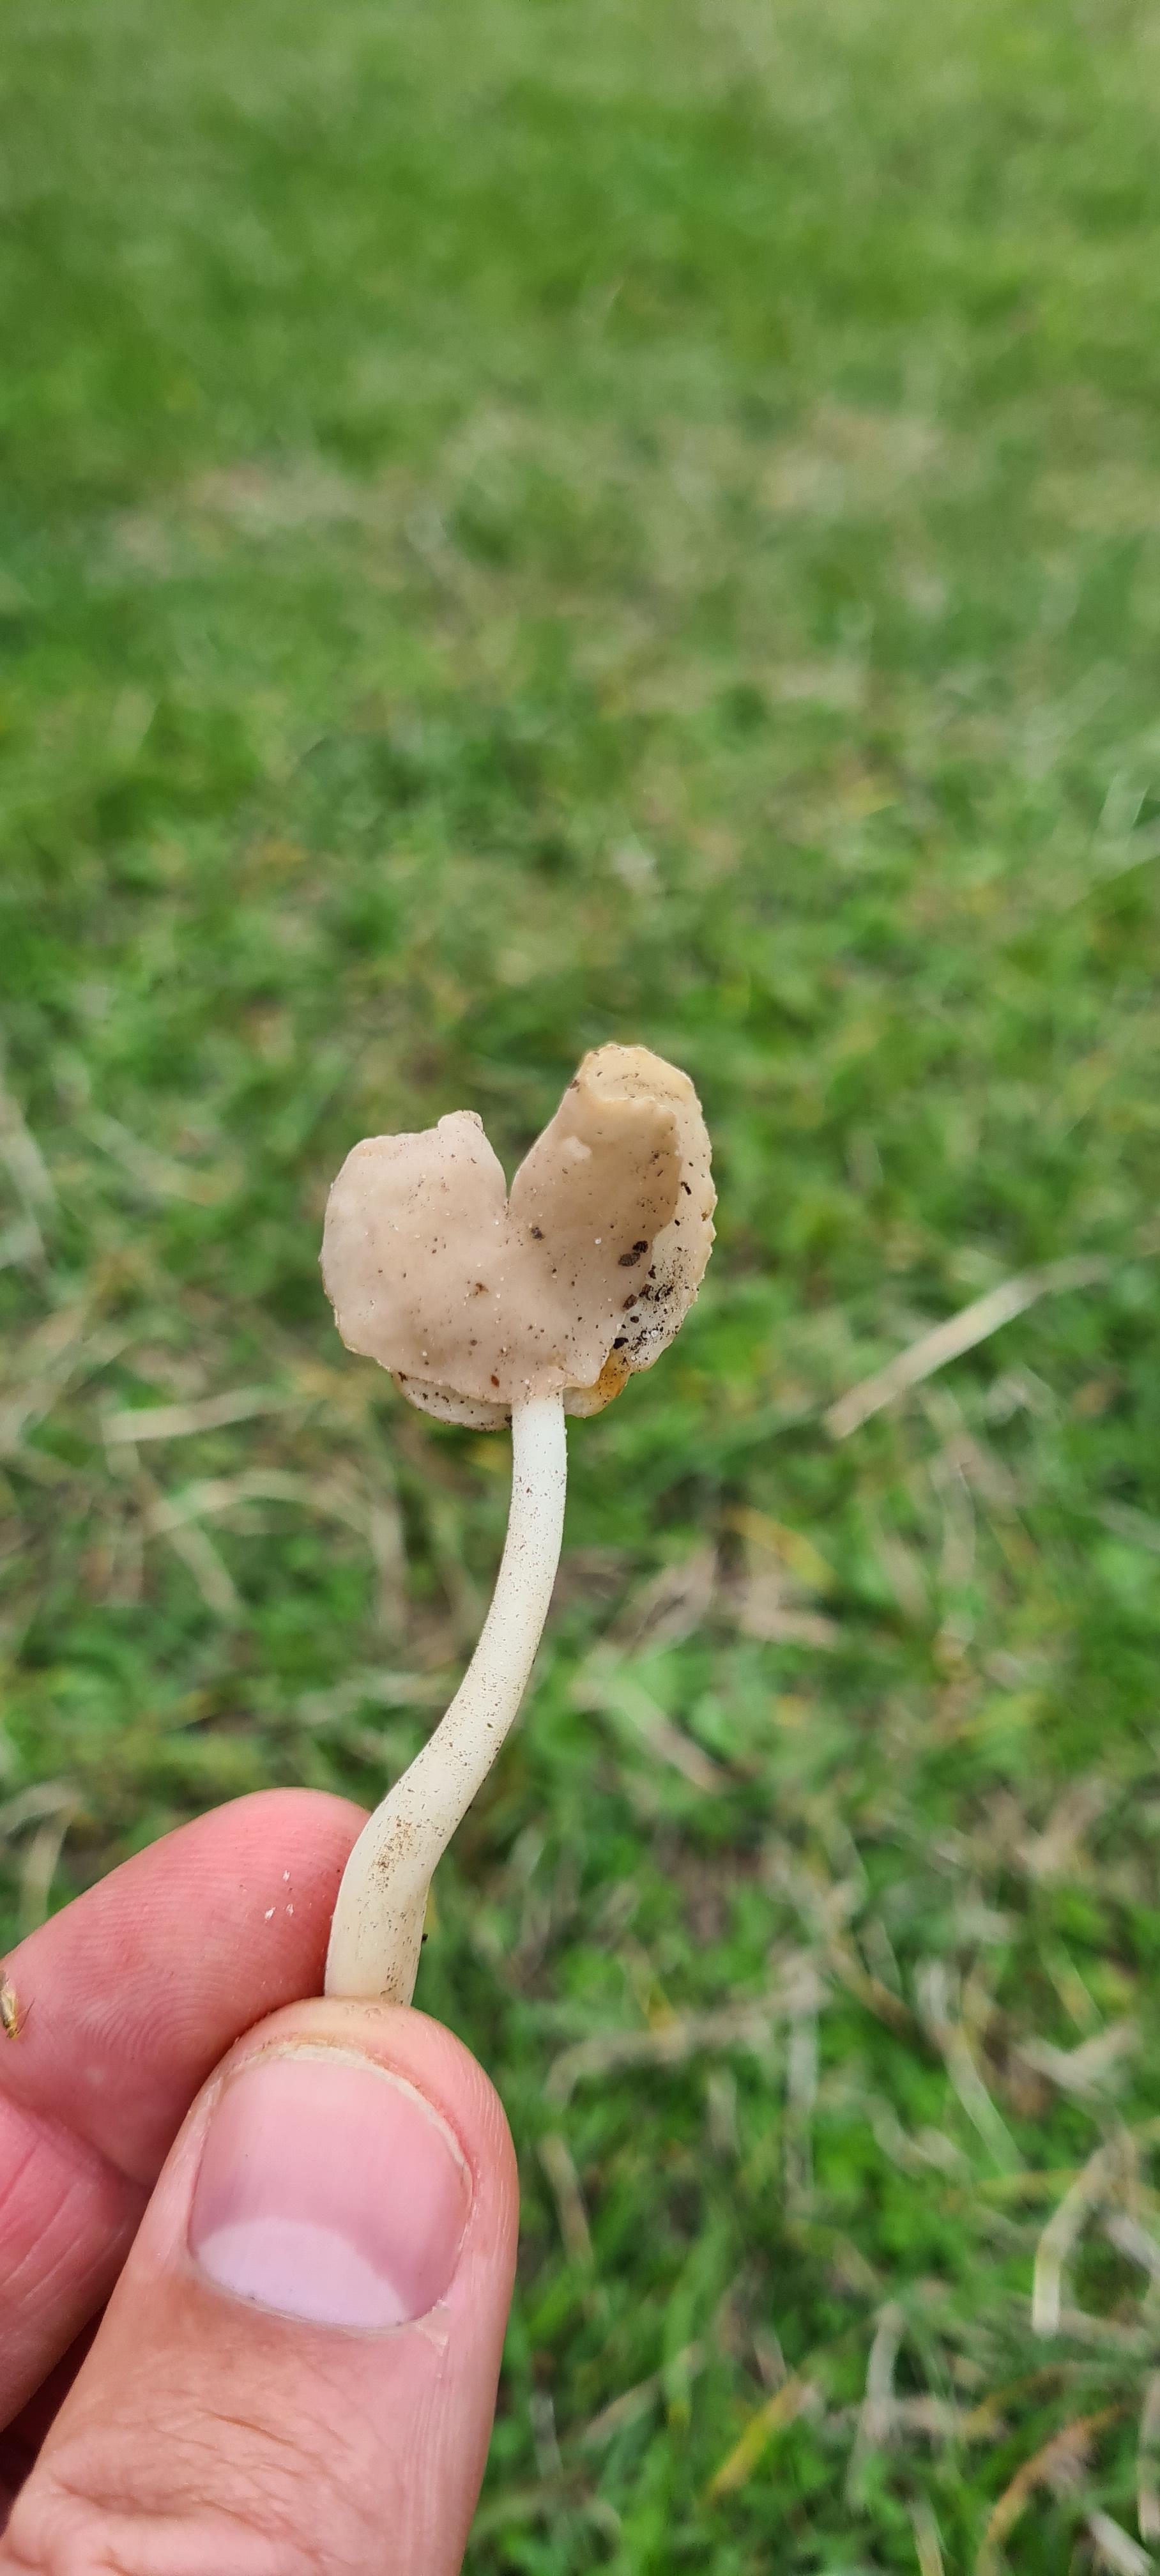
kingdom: Fungi
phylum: Ascomycota
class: Pezizomycetes
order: Pezizales
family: Helvellaceae
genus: Helvella
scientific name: Helvella
